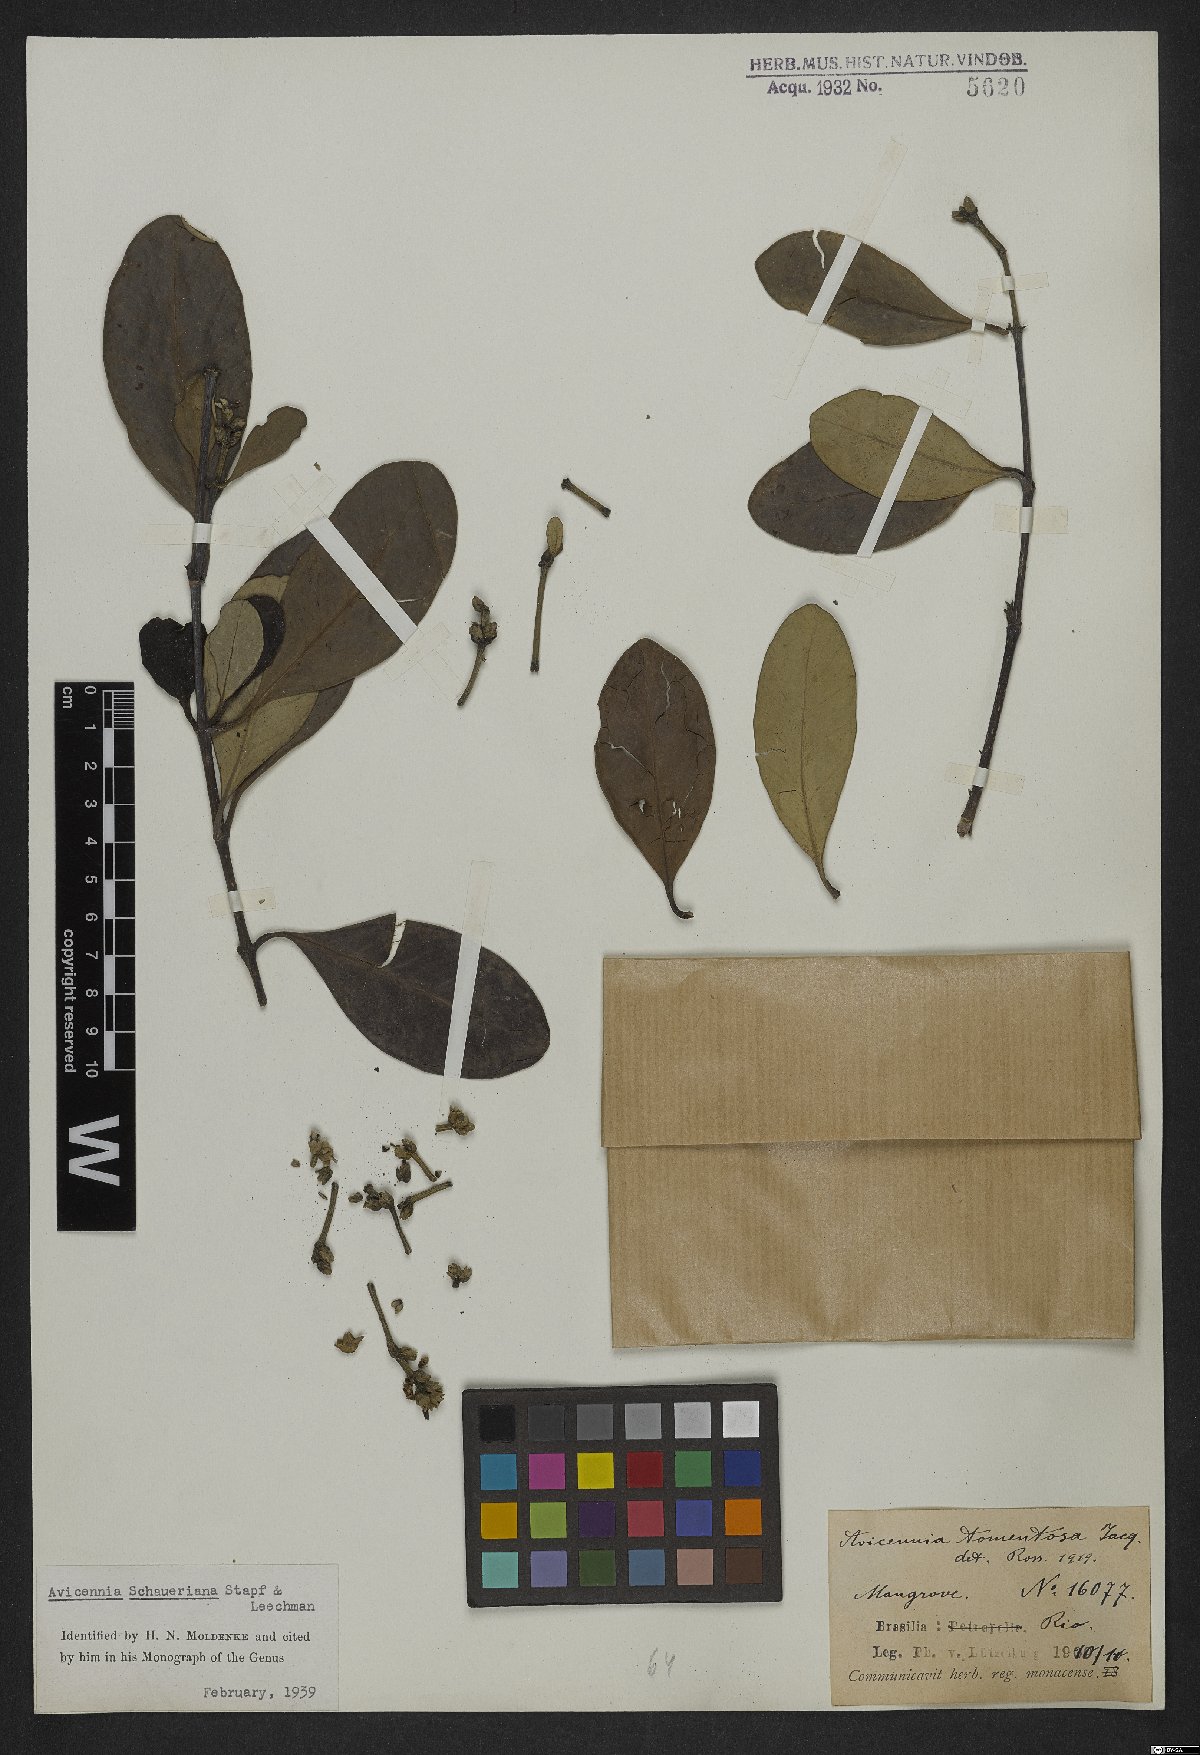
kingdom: Plantae
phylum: Tracheophyta
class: Magnoliopsida
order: Lamiales
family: Acanthaceae
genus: Avicennia
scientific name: Avicennia schaueriana
